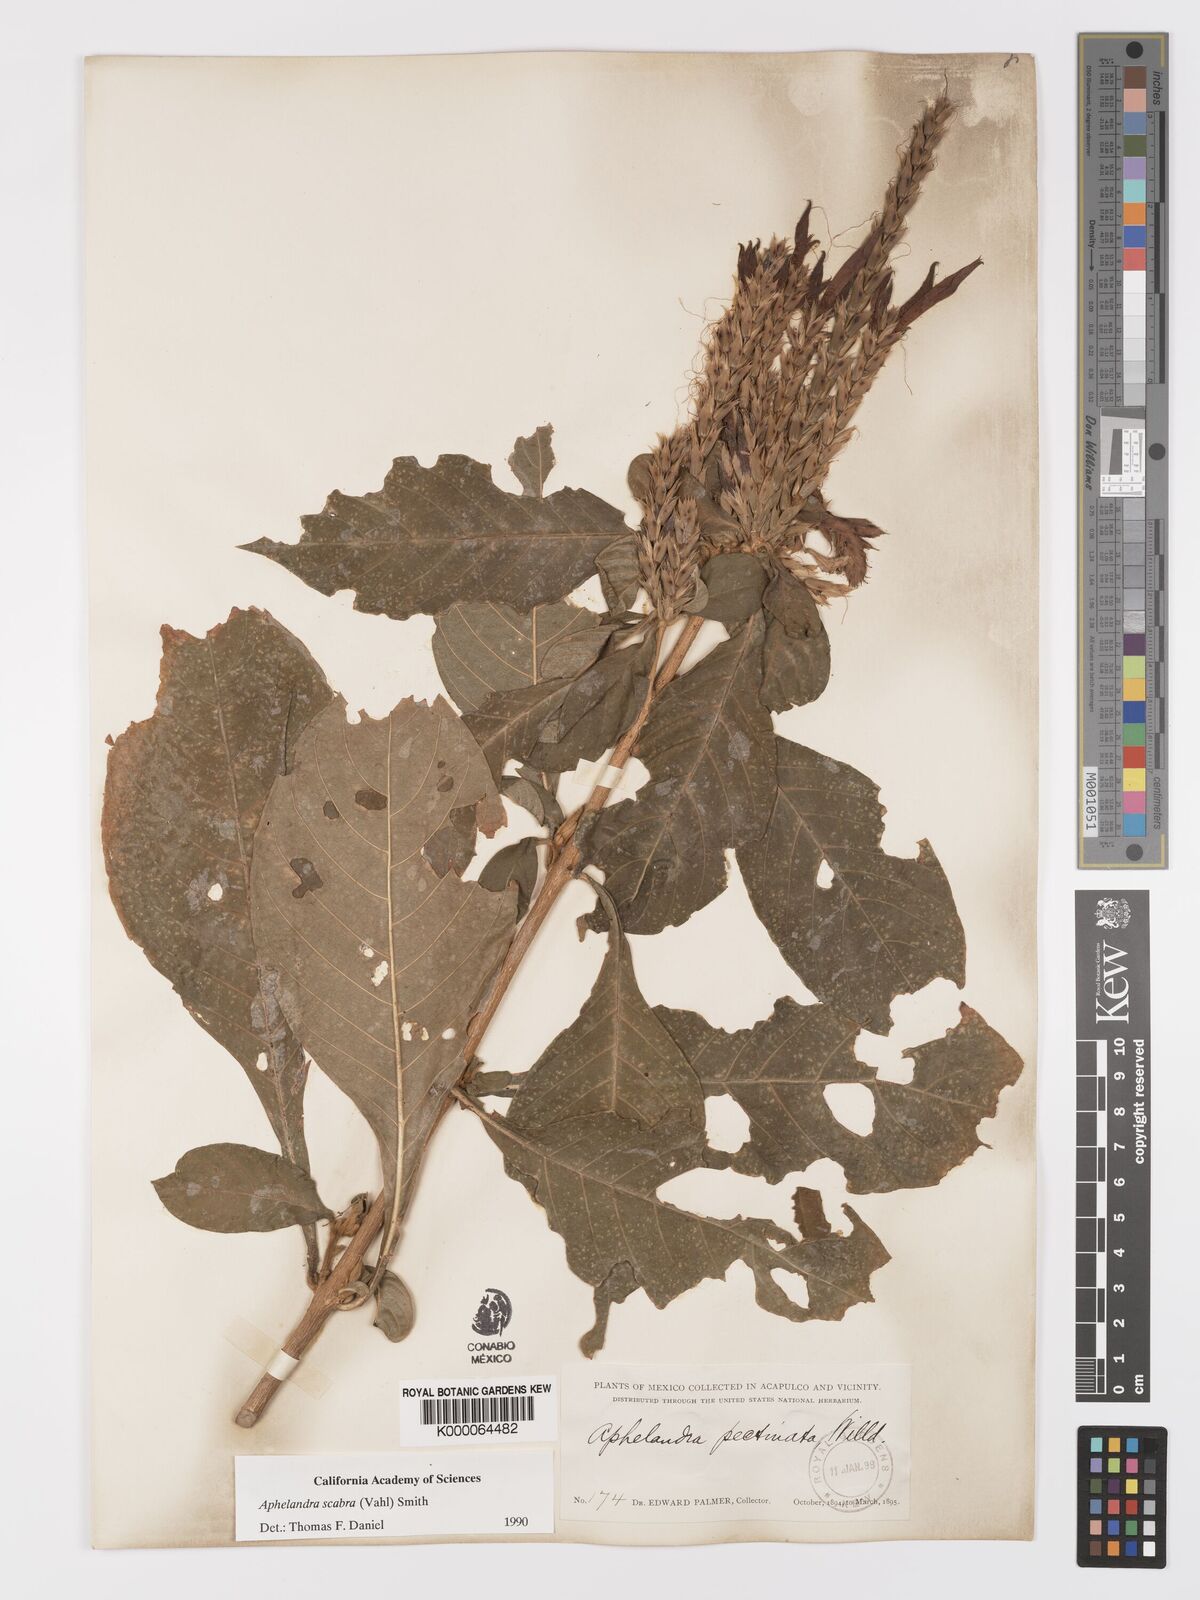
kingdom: Plantae
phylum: Tracheophyta
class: Magnoliopsida
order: Lamiales
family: Acanthaceae
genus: Aphelandra
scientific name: Aphelandra scabra
